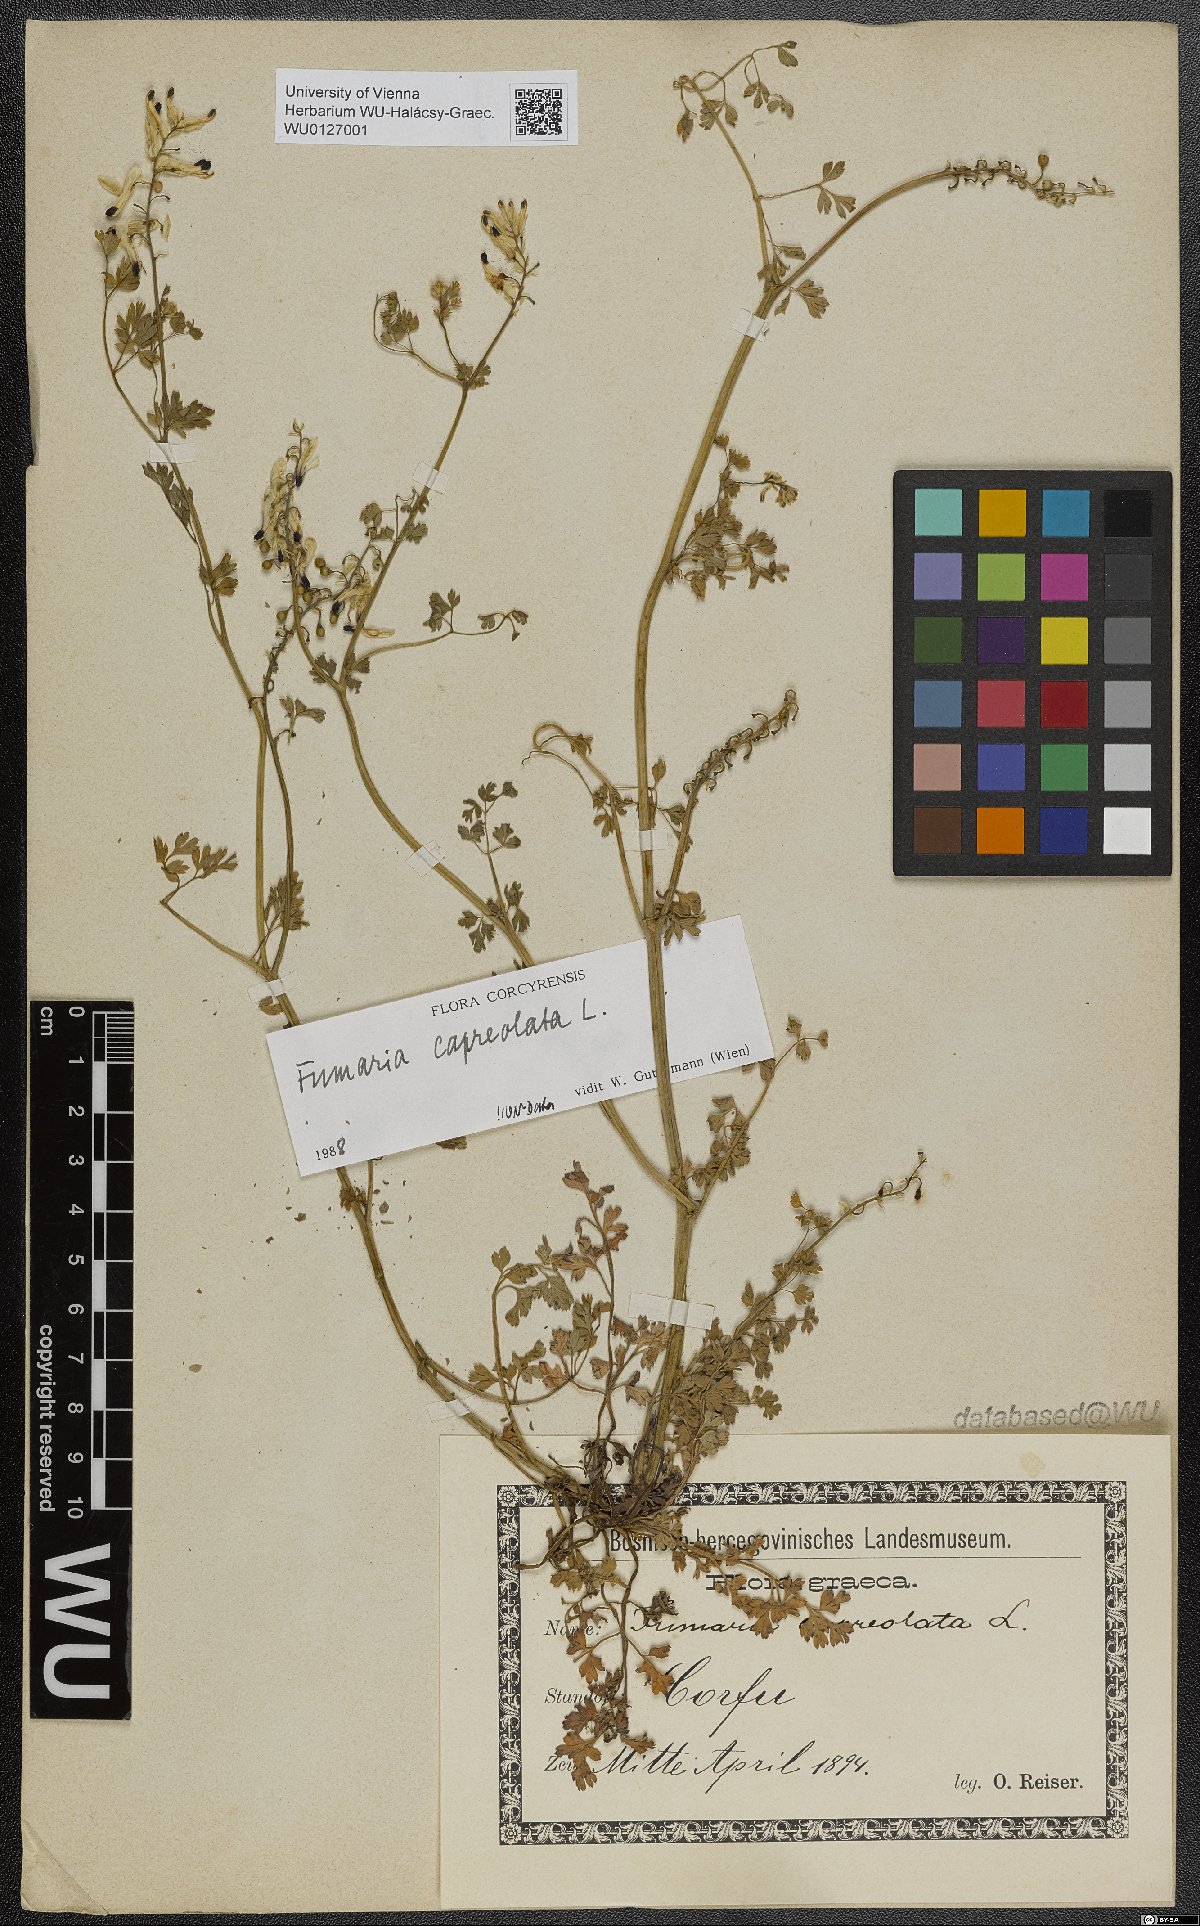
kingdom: Plantae
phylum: Tracheophyta
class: Magnoliopsida
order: Ranunculales
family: Papaveraceae
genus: Fumaria
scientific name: Fumaria capreolata
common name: White ramping-fumitory
